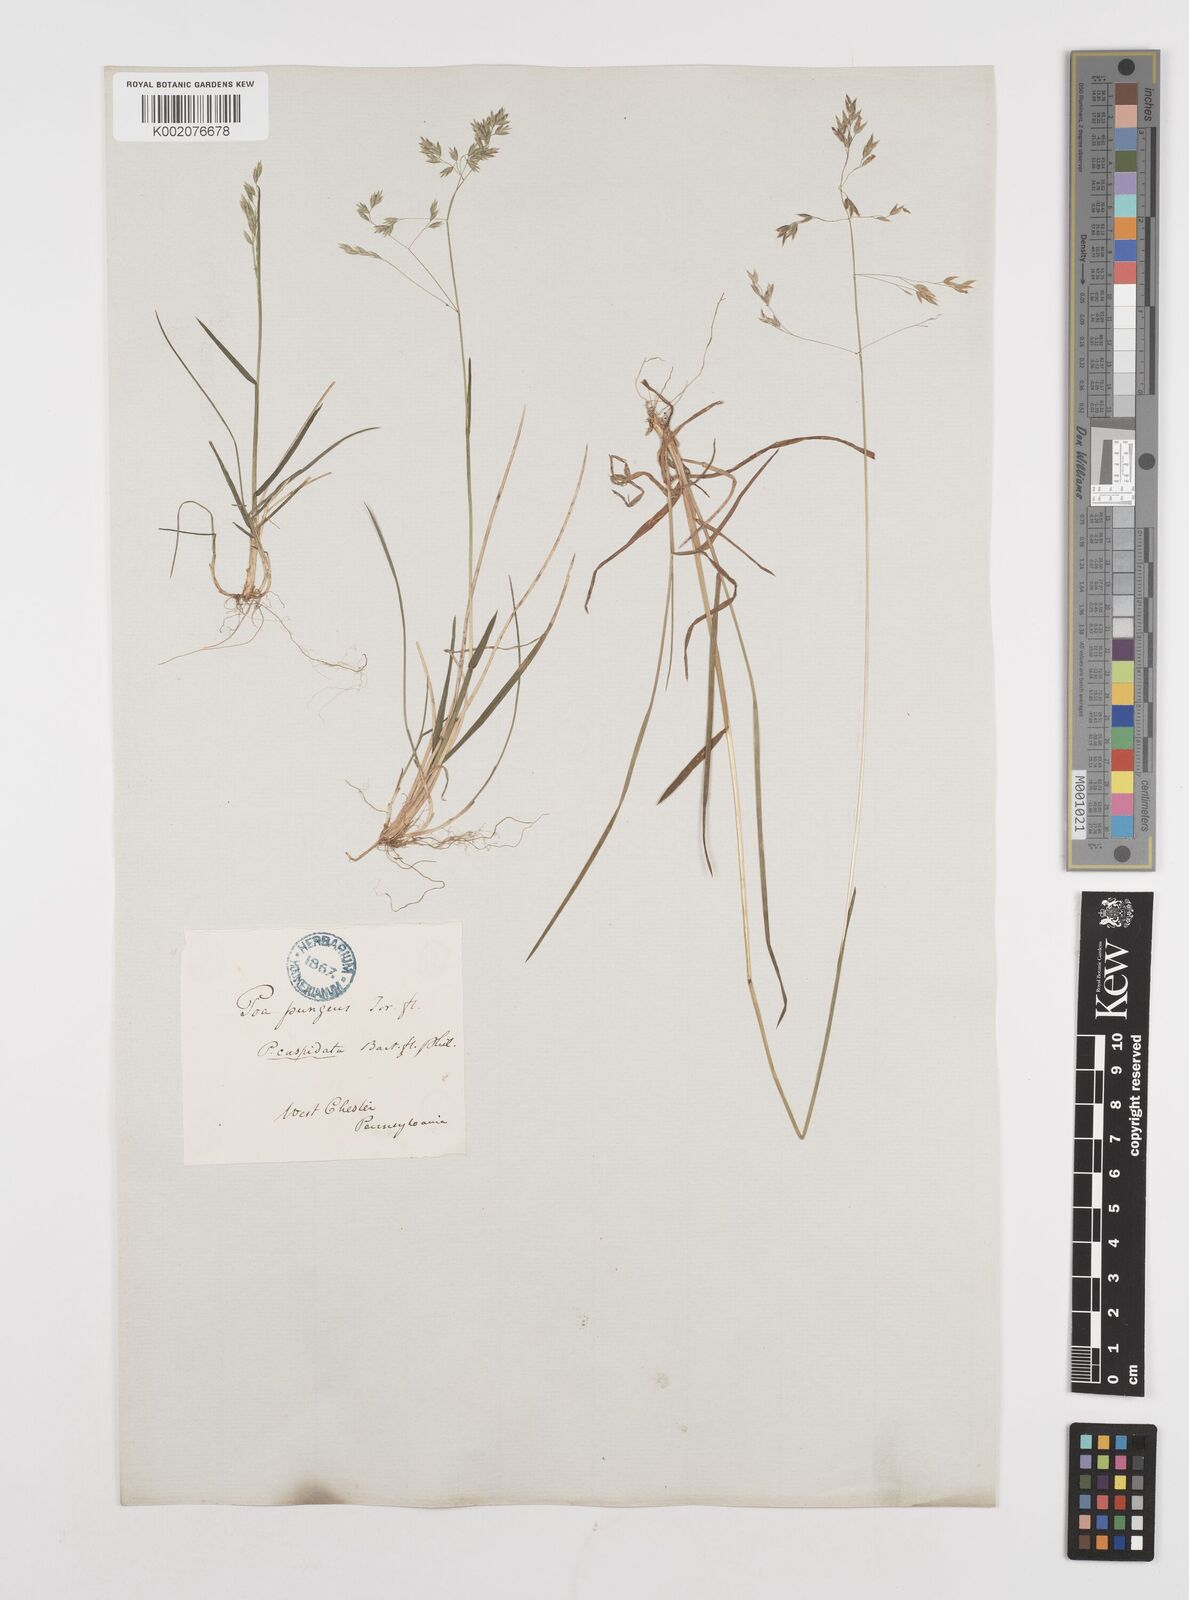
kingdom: Plantae
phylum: Tracheophyta
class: Liliopsida
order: Poales
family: Poaceae
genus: Poa
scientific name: Poa cuspidata
